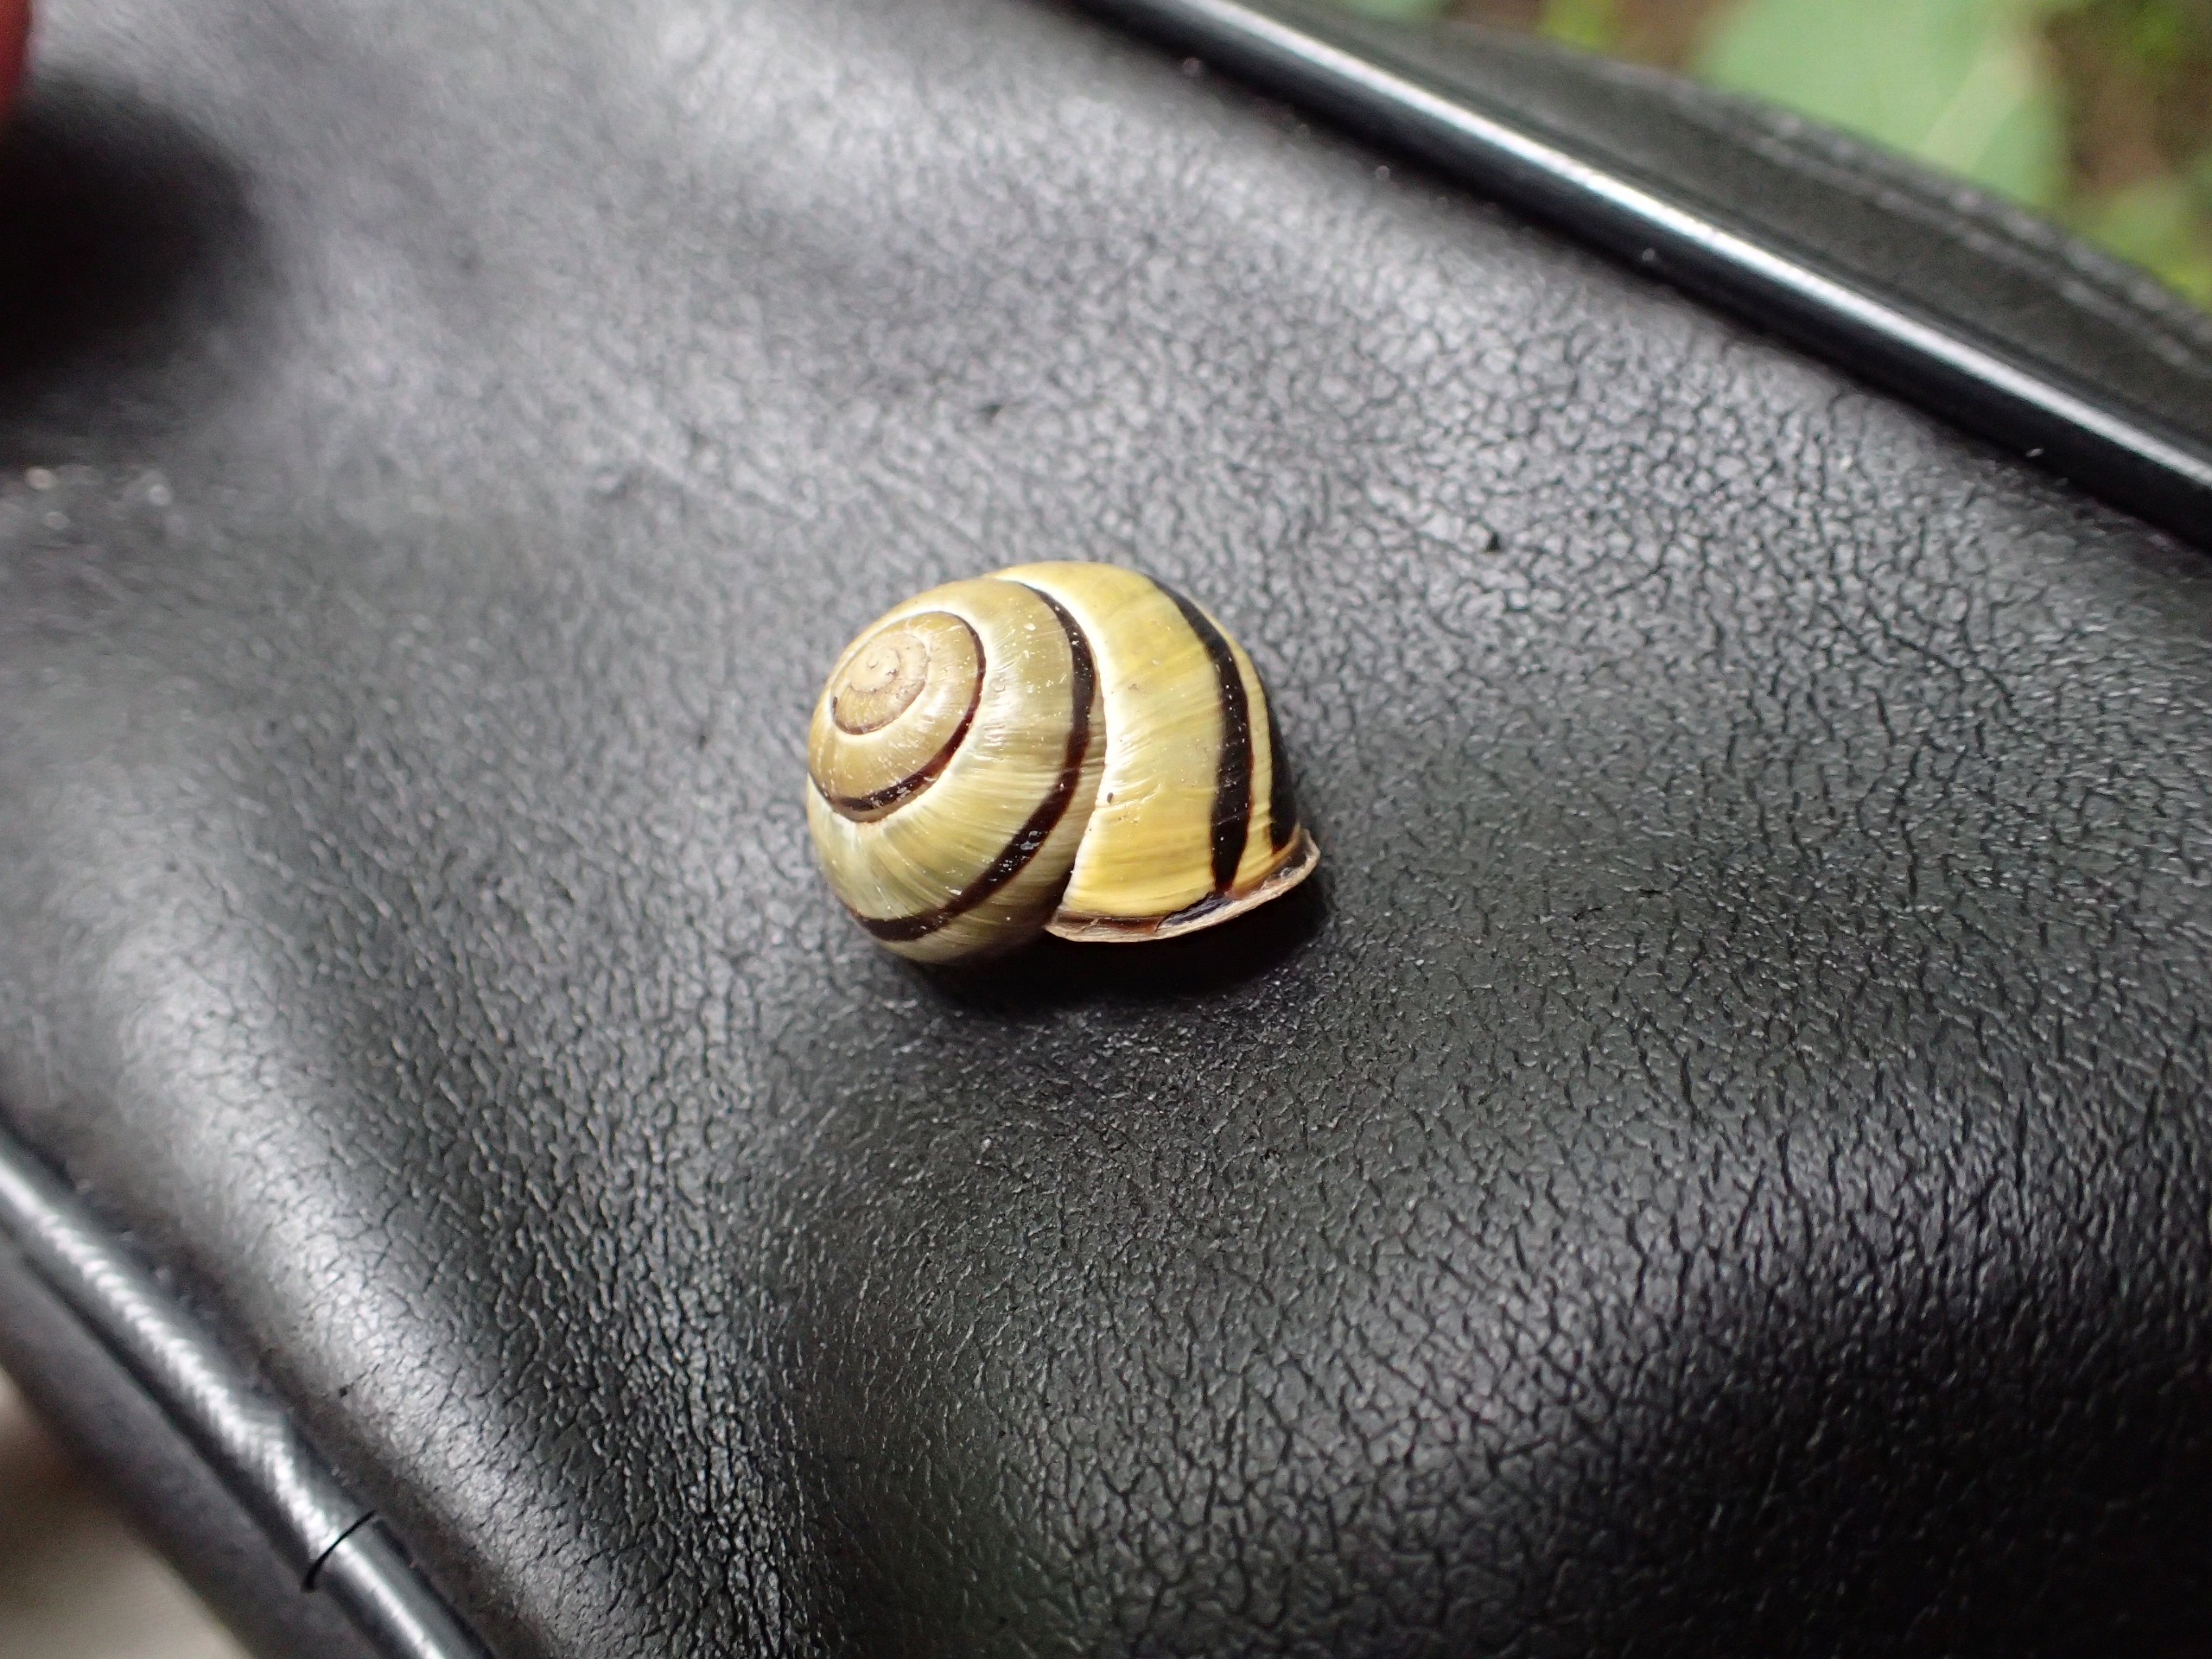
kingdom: Animalia
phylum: Mollusca
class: Gastropoda
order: Stylommatophora
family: Helicidae
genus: Cepaea
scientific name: Cepaea nemoralis
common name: Lundsnegl
